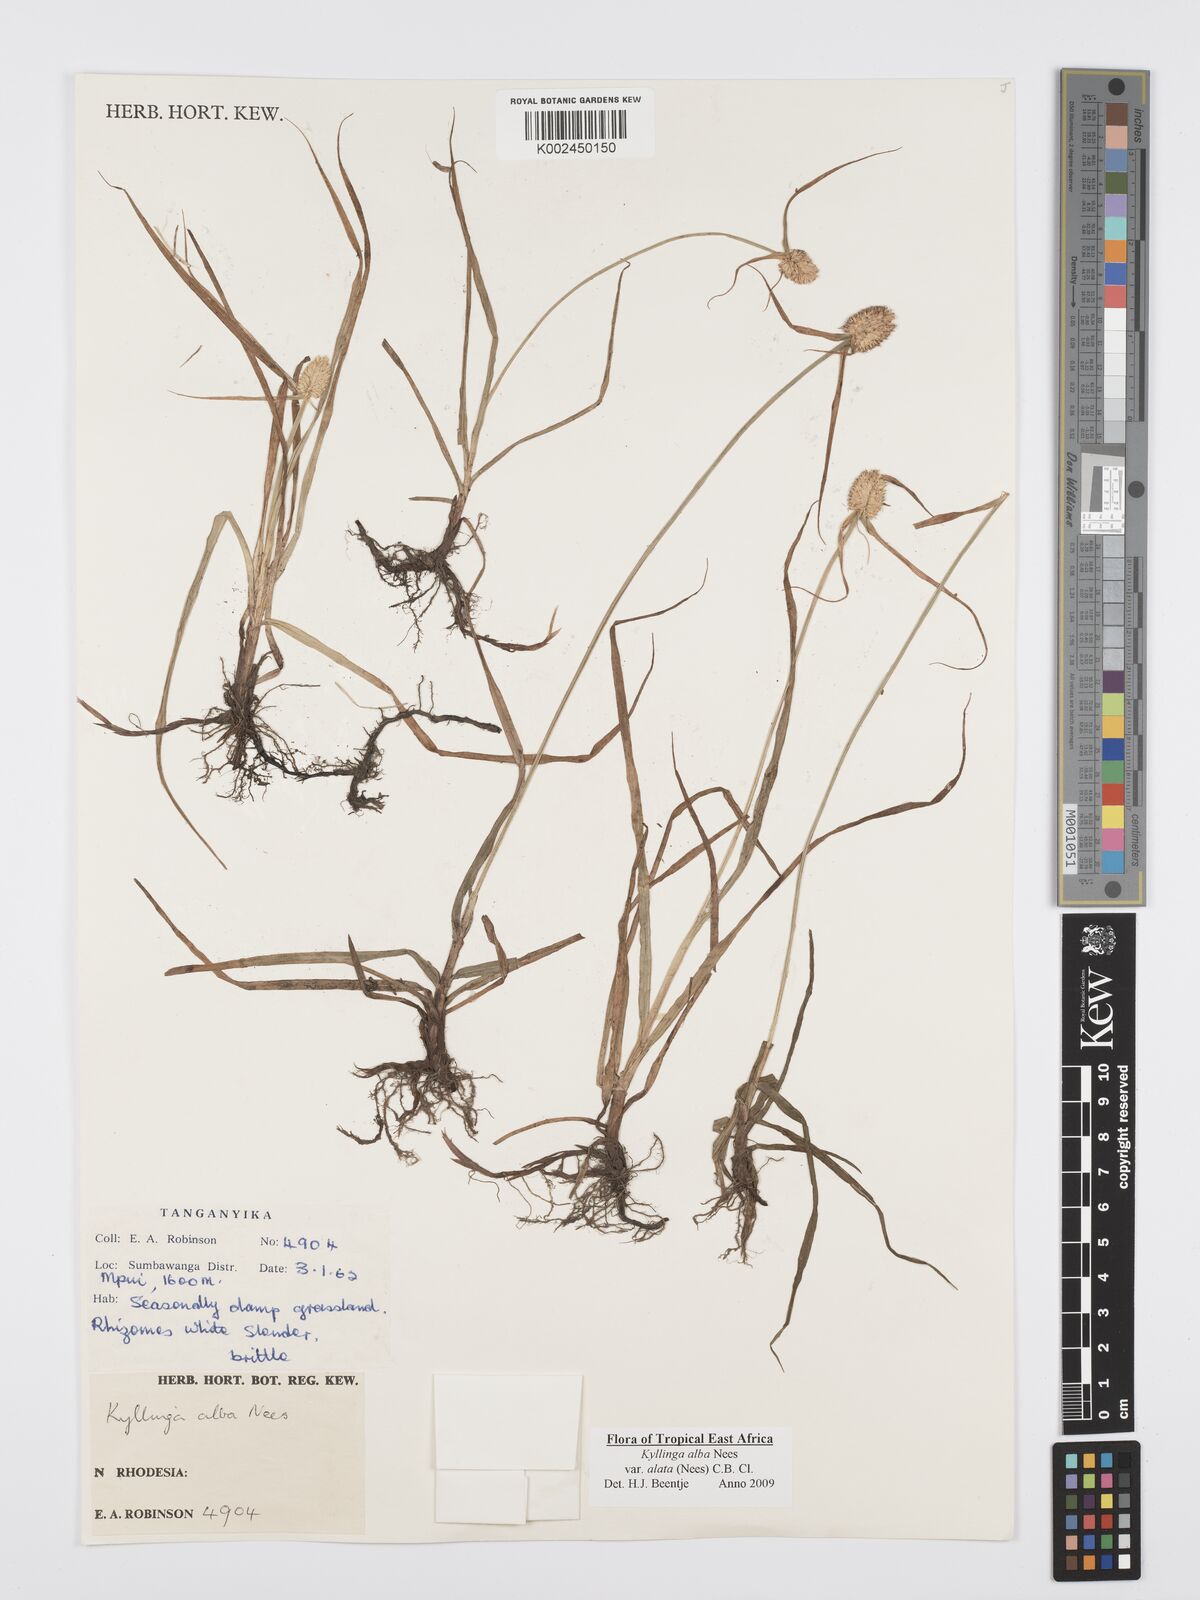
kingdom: Plantae
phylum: Tracheophyta
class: Liliopsida
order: Poales
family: Cyperaceae
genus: Cyperus
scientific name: Cyperus alatus
